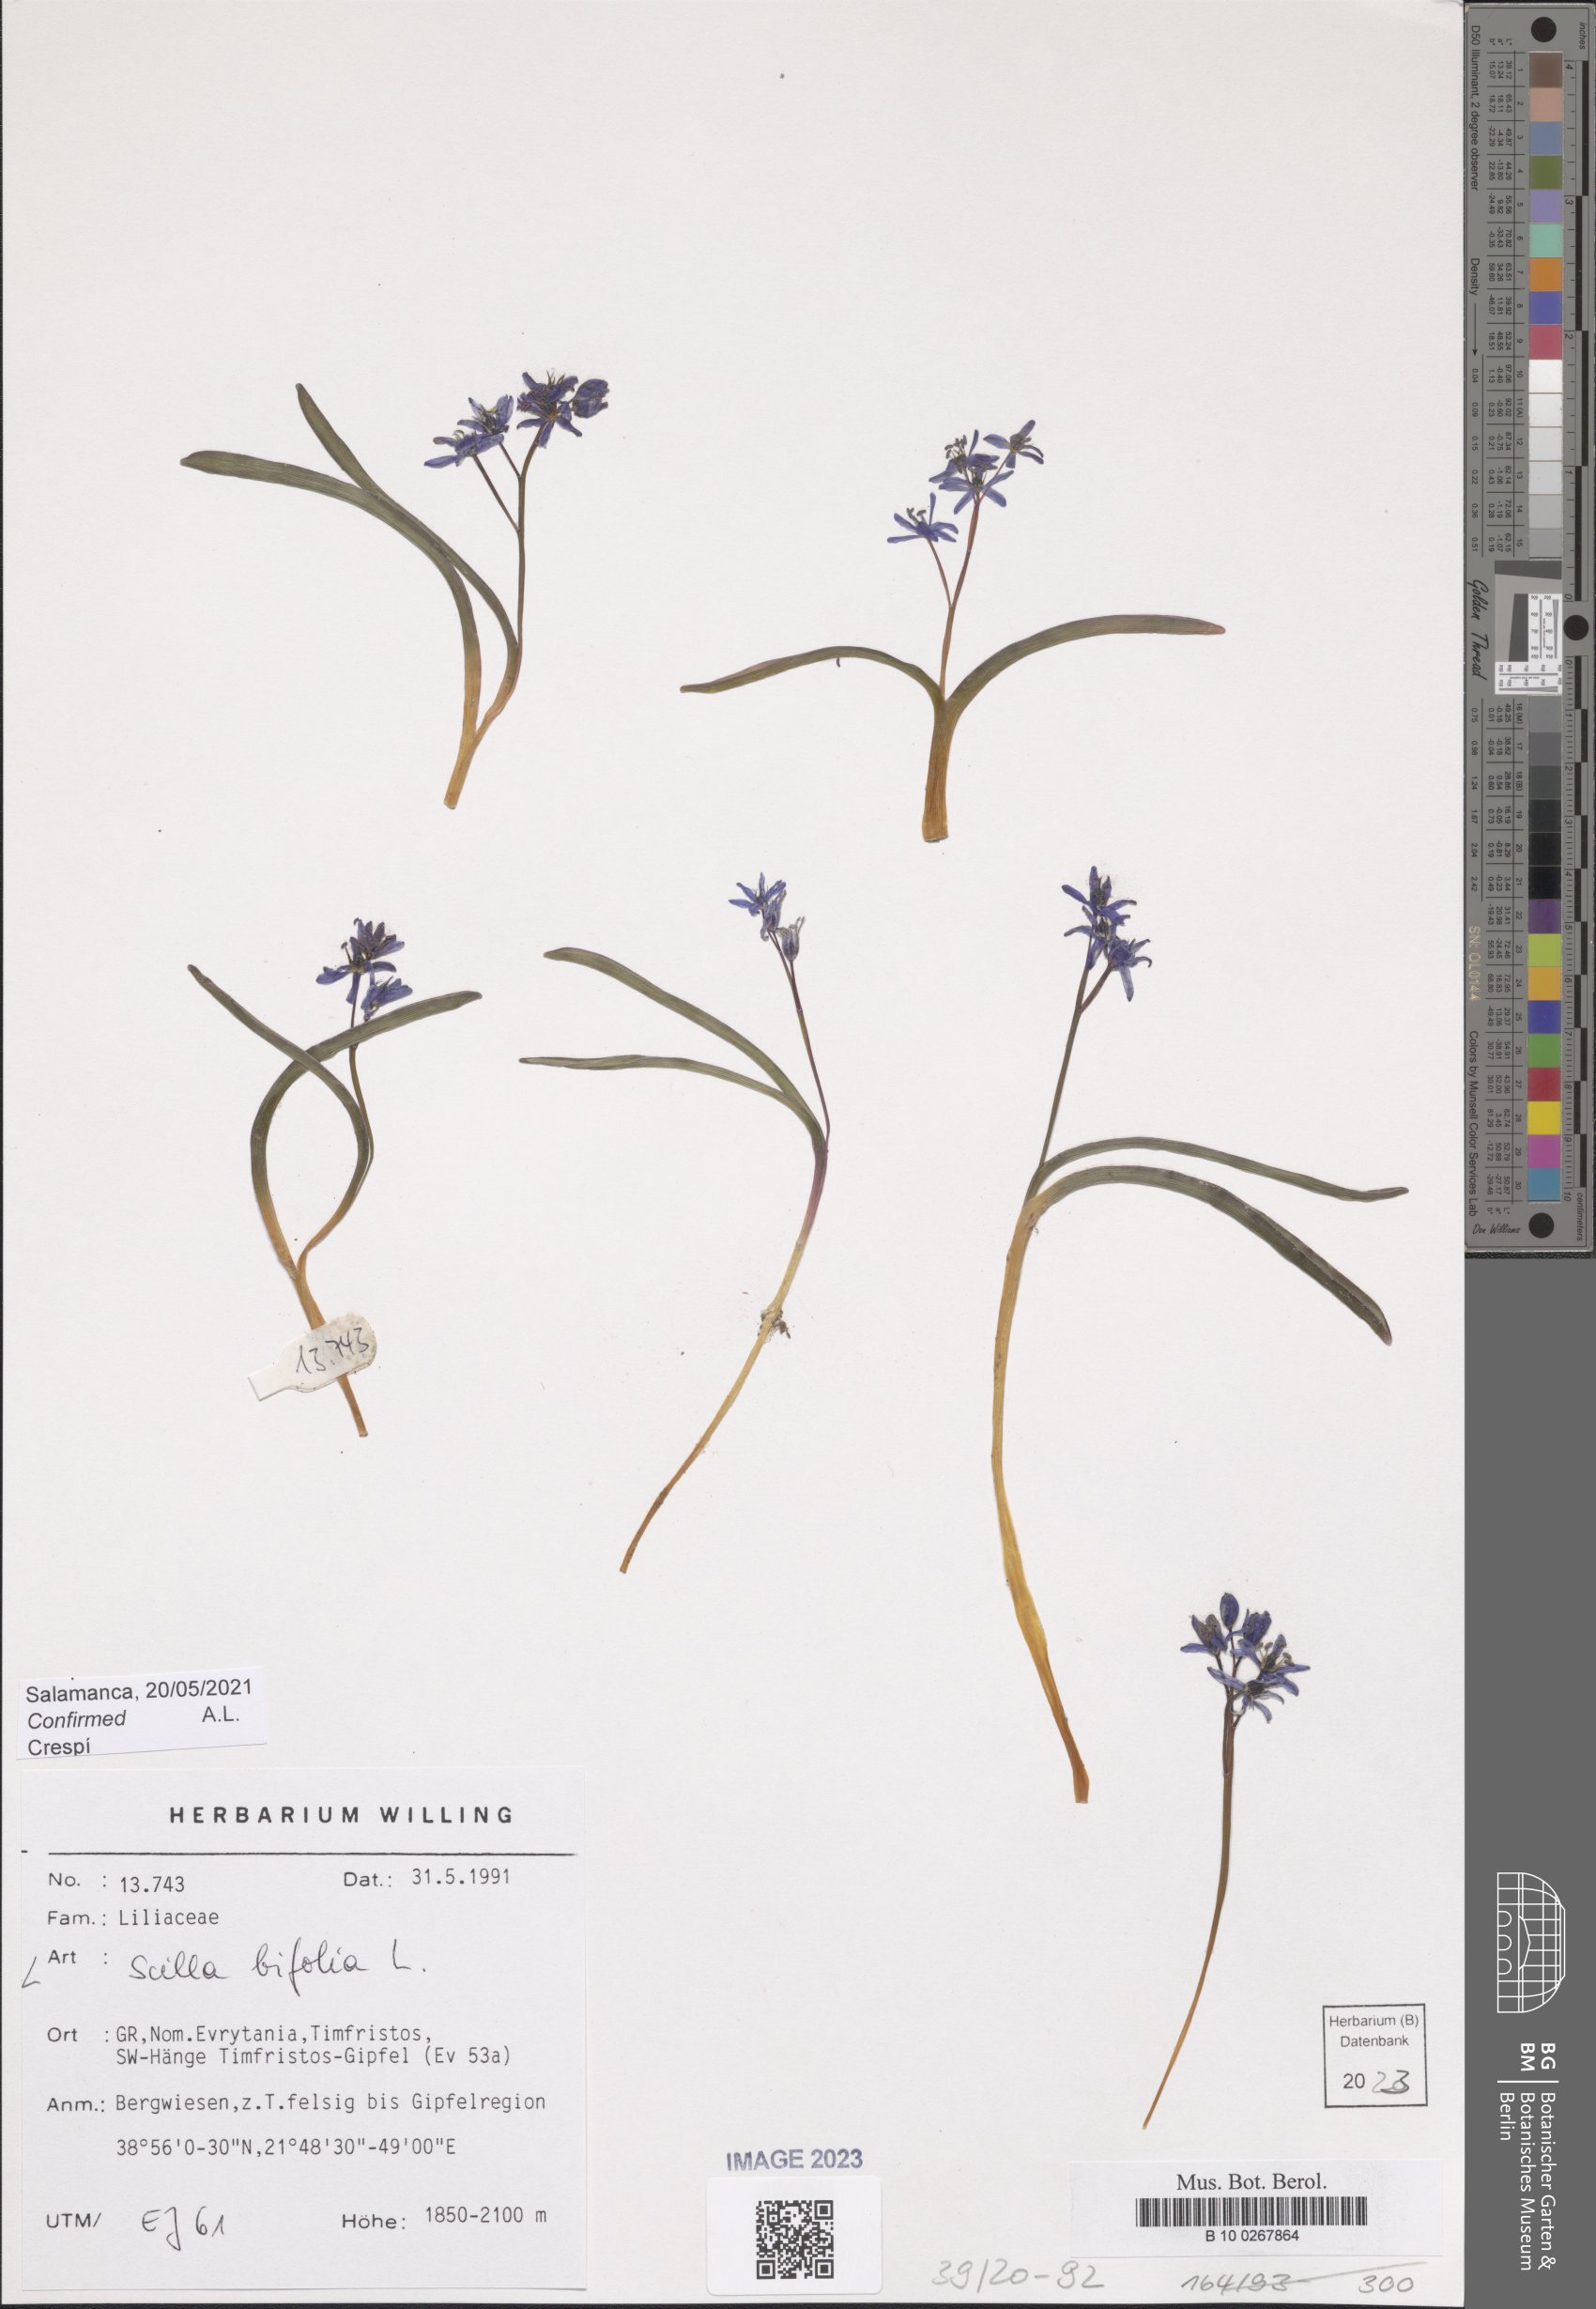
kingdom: Plantae
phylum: Tracheophyta
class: Liliopsida
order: Asparagales
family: Asparagaceae
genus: Scilla
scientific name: Scilla bifolia
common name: Alpine squill
